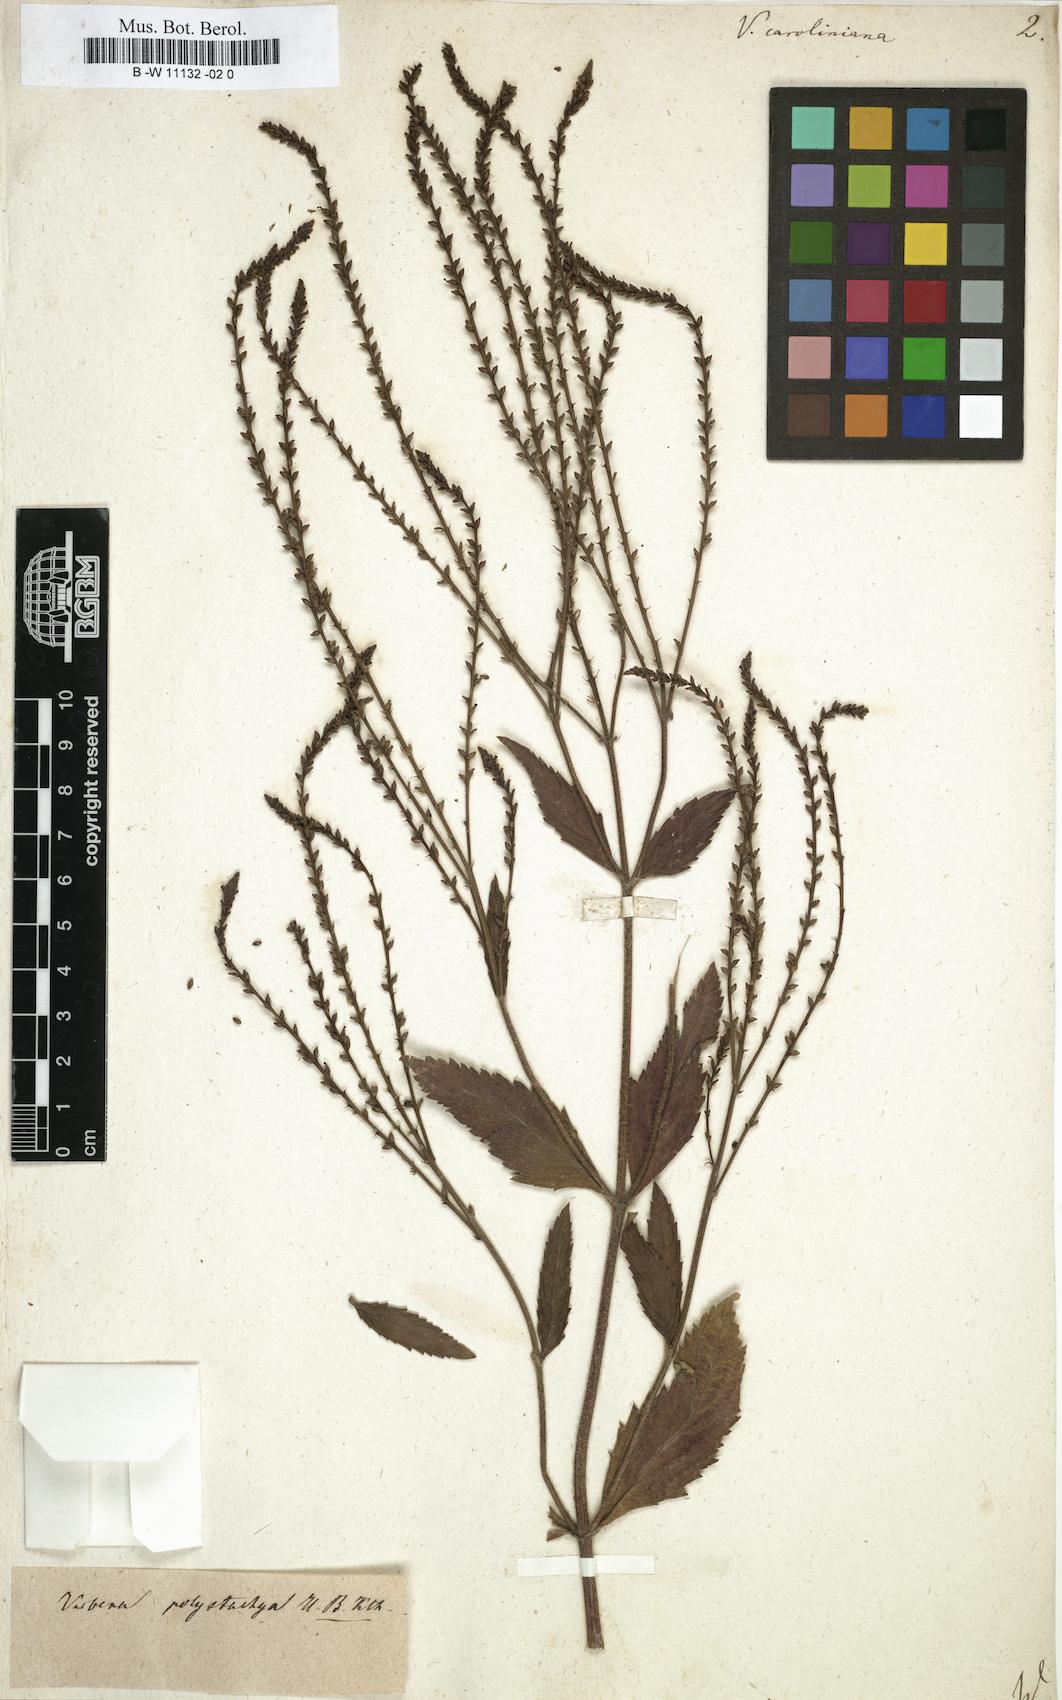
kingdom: Plantae
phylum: Tracheophyta
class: Magnoliopsida
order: Lamiales
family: Verbenaceae
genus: Verbena
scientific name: Verbena caroliniana
